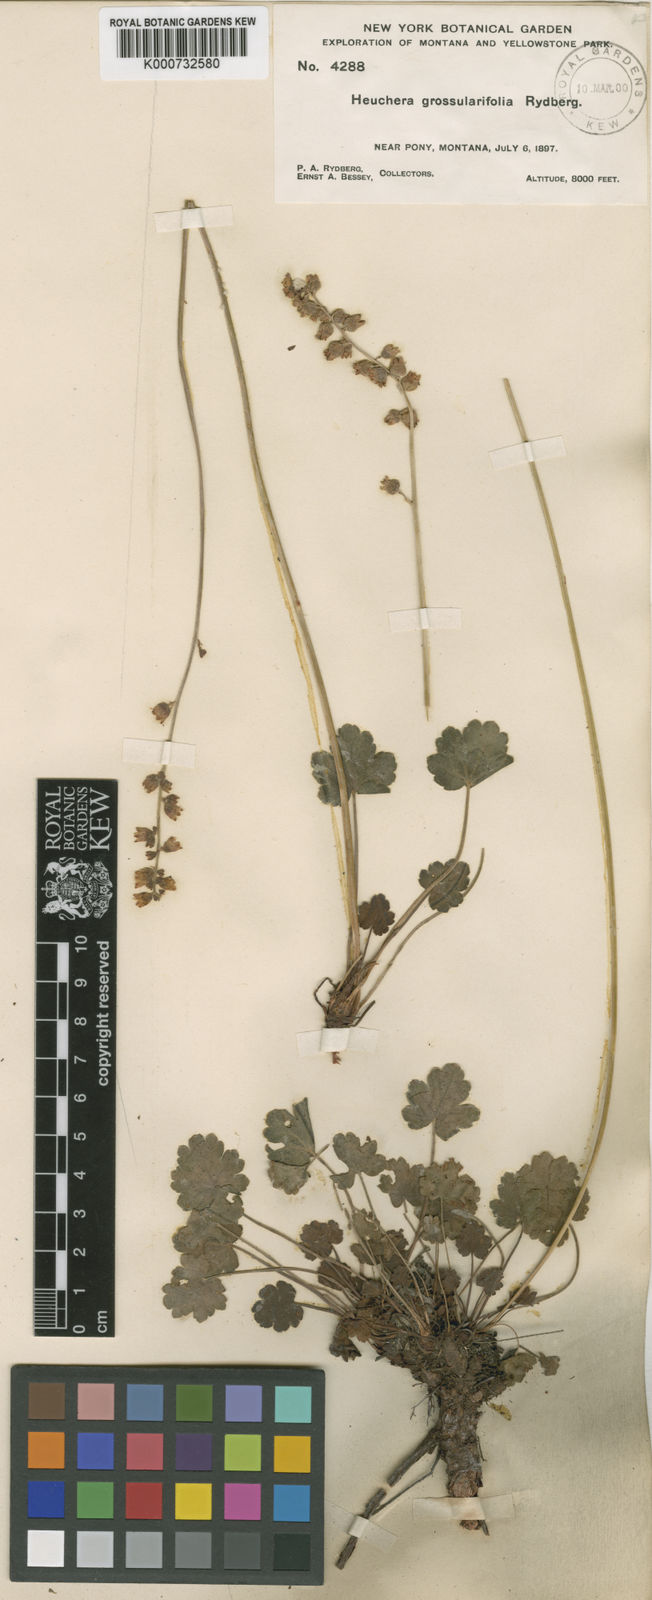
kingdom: Plantae
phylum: Tracheophyta
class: Magnoliopsida
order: Saxifragales
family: Saxifragaceae
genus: Heuchera
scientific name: Heuchera grossulariifolia
